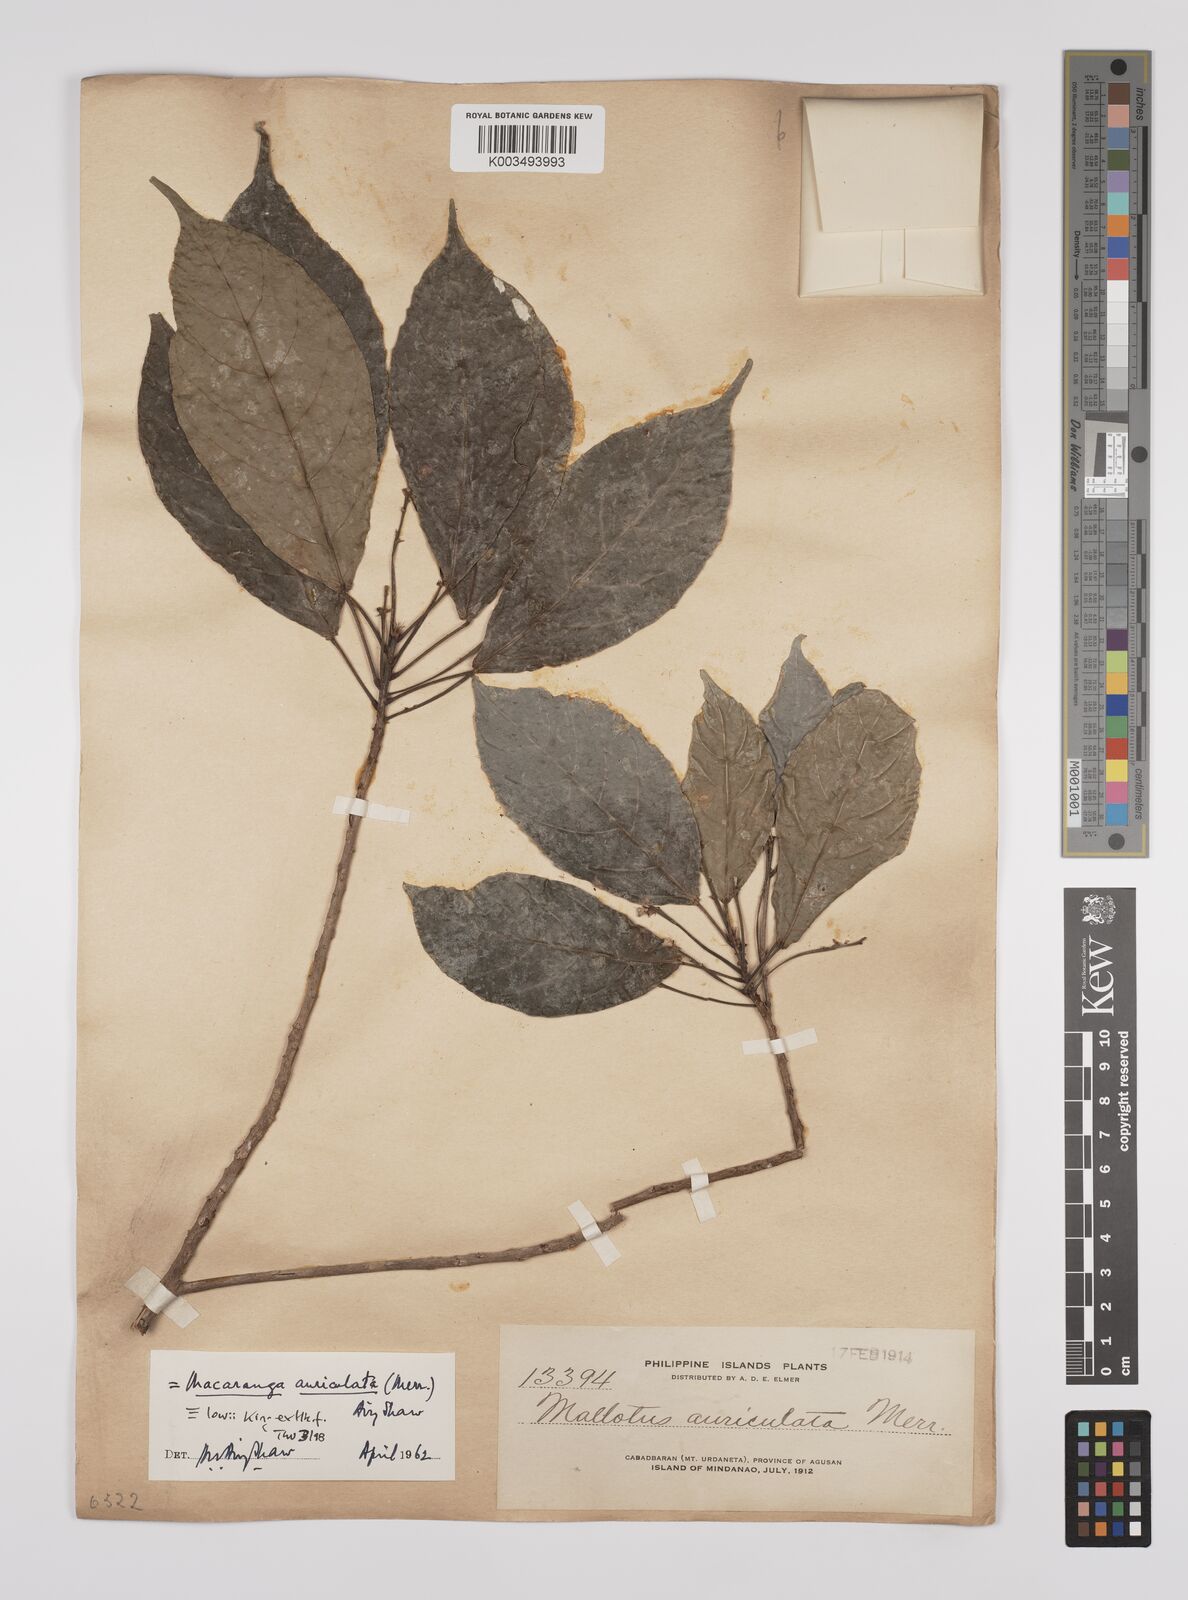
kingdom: Plantae
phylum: Tracheophyta
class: Magnoliopsida
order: Malpighiales
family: Euphorbiaceae
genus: Macaranga
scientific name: Macaranga lowii
